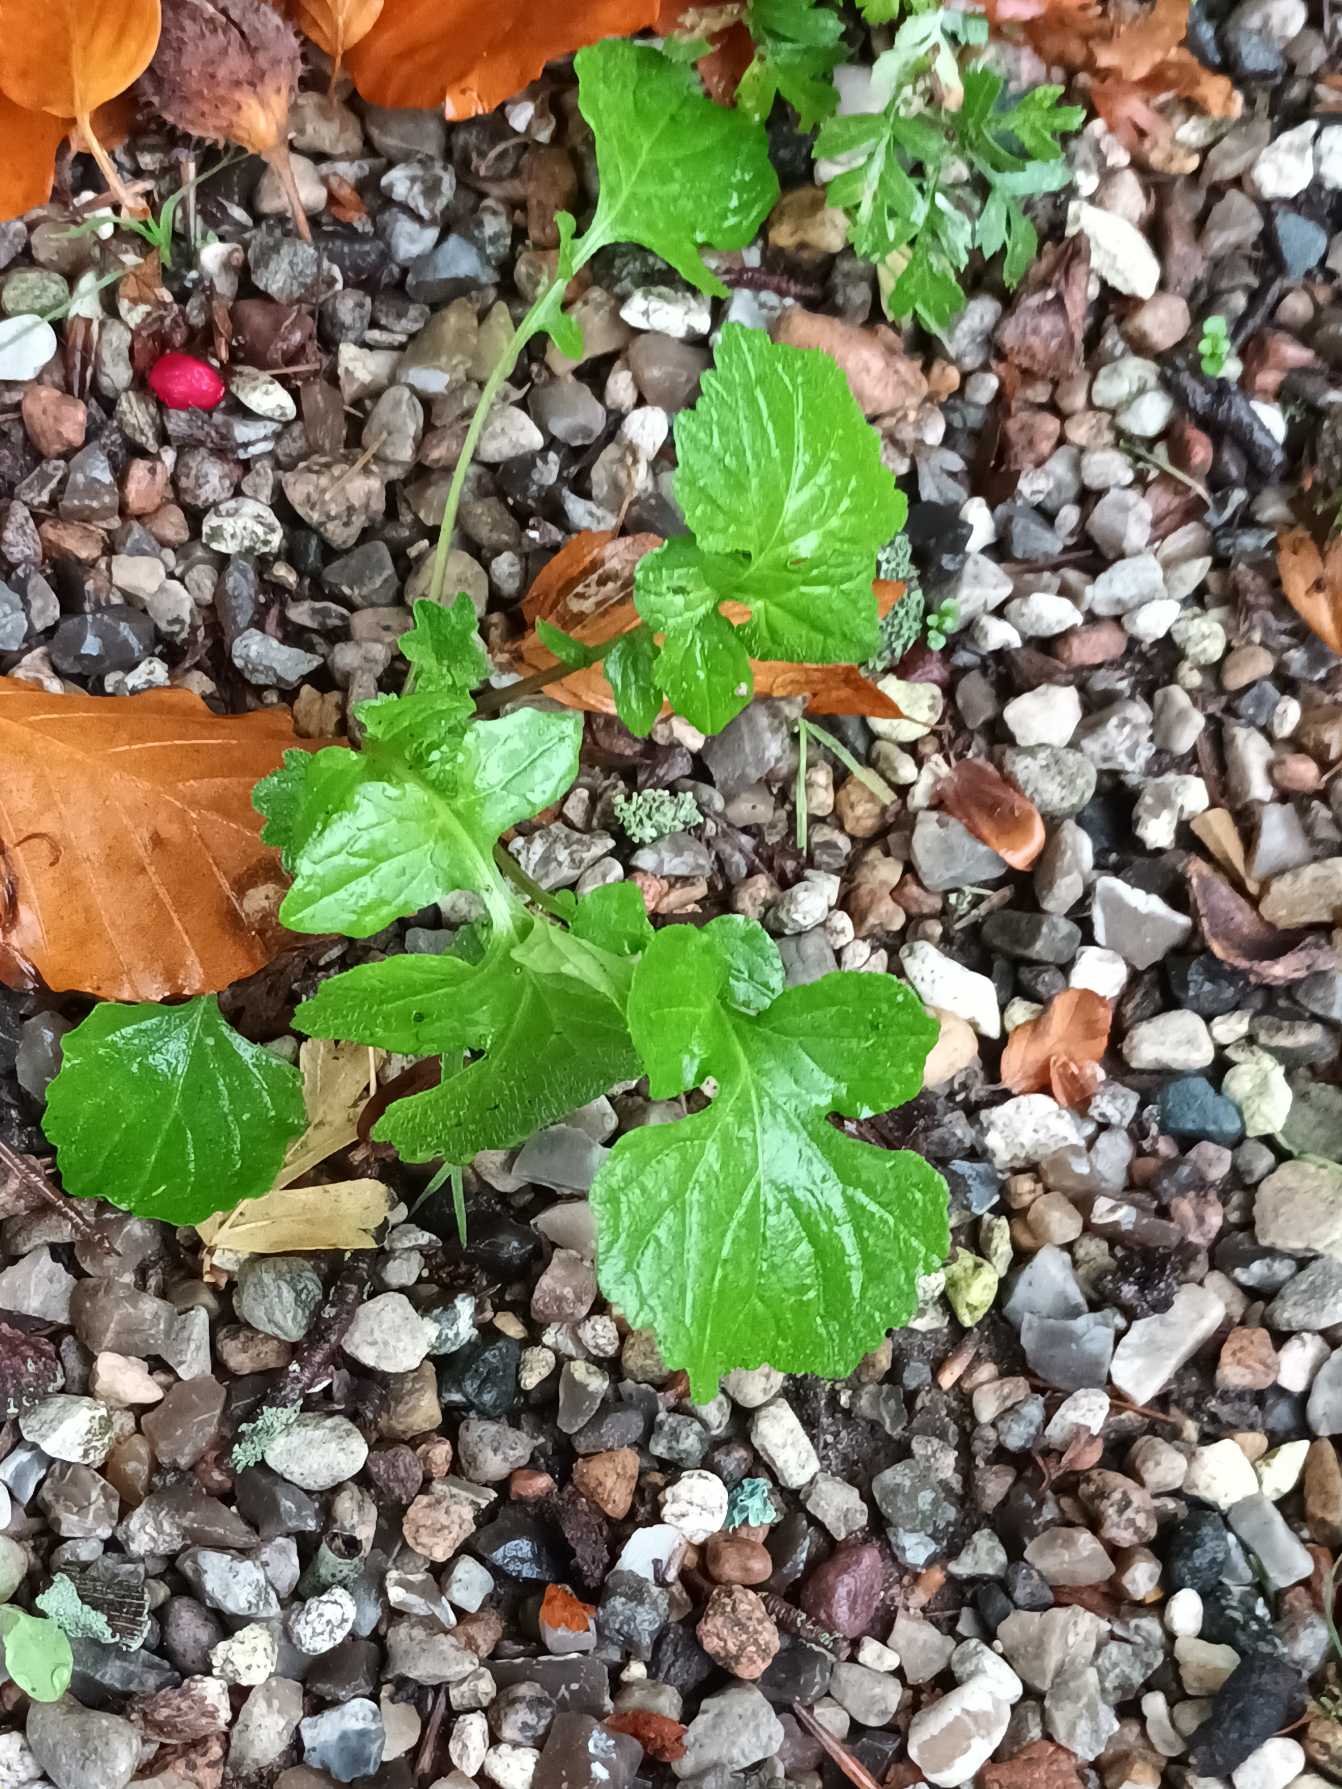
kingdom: Plantae
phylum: Tracheophyta
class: Magnoliopsida
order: Asterales
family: Asteraceae
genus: Sonchus
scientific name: Sonchus oleraceus
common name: Almindelig svinemælk
